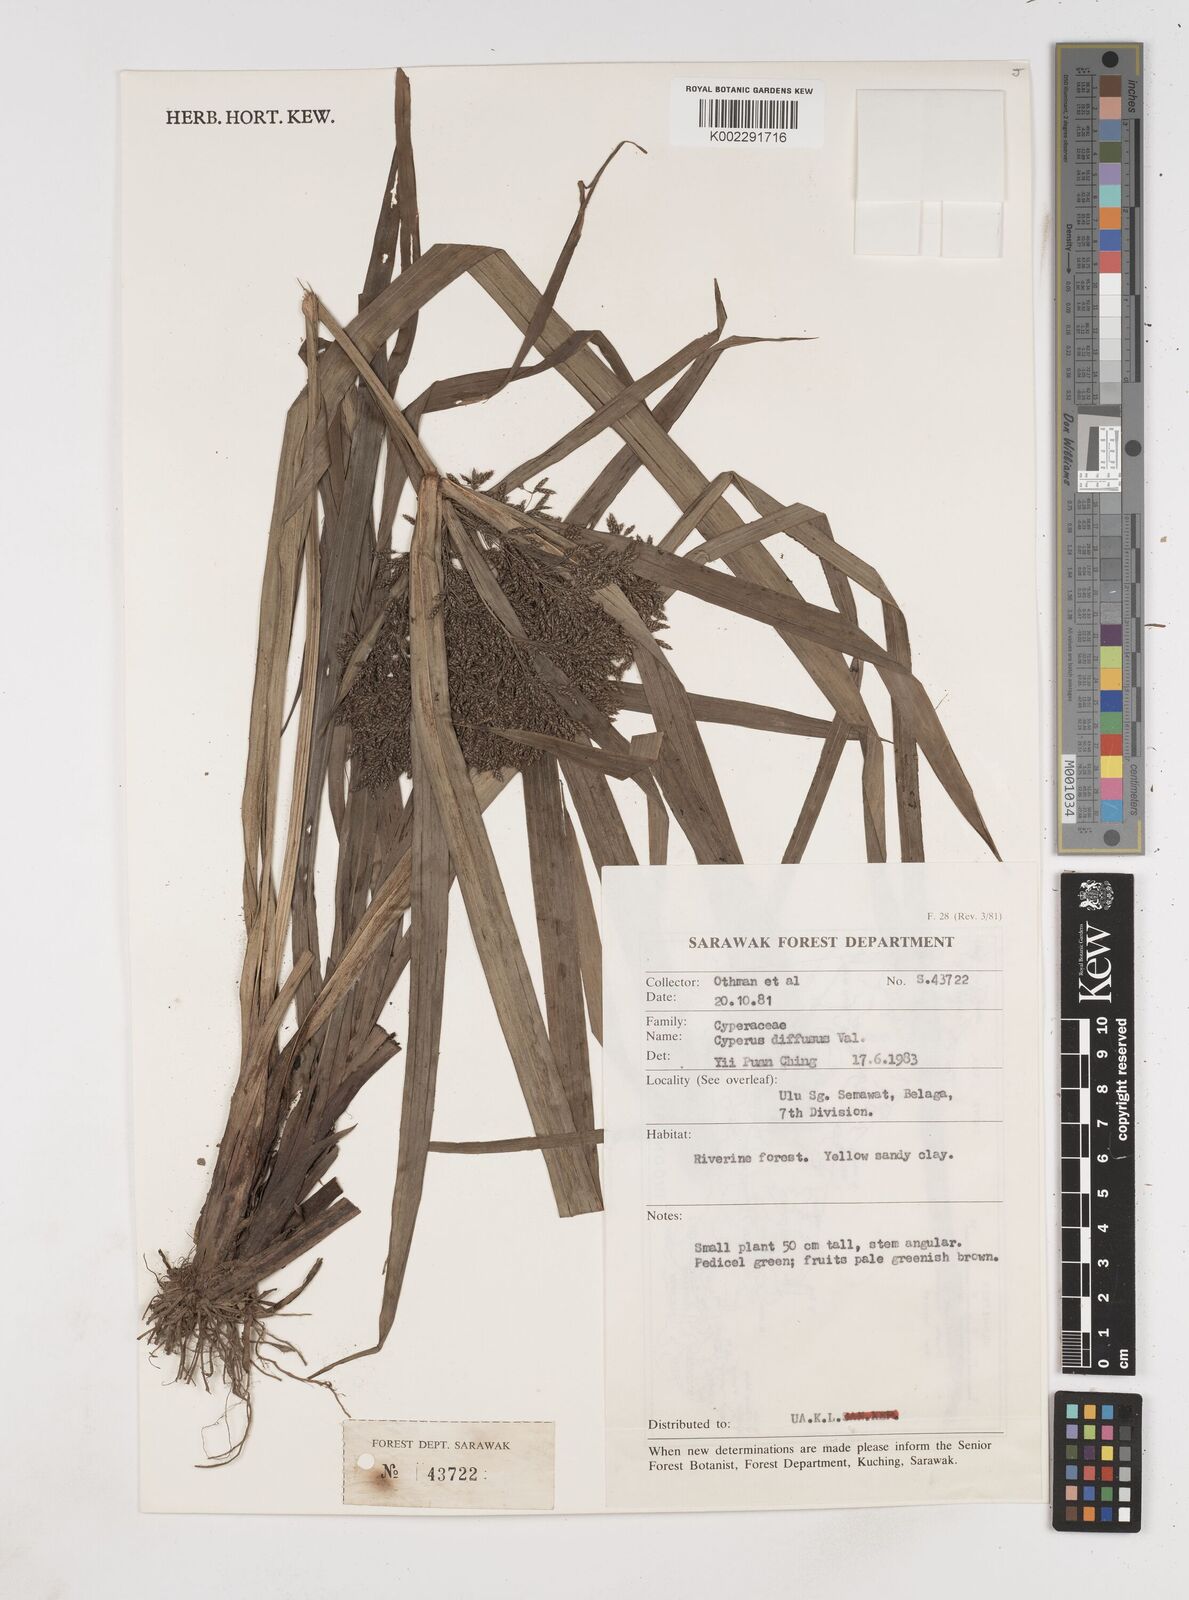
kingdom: Plantae
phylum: Tracheophyta
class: Liliopsida
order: Poales
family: Cyperaceae
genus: Cyperus
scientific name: Cyperus diffusus
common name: Dwarf umbrella grass
